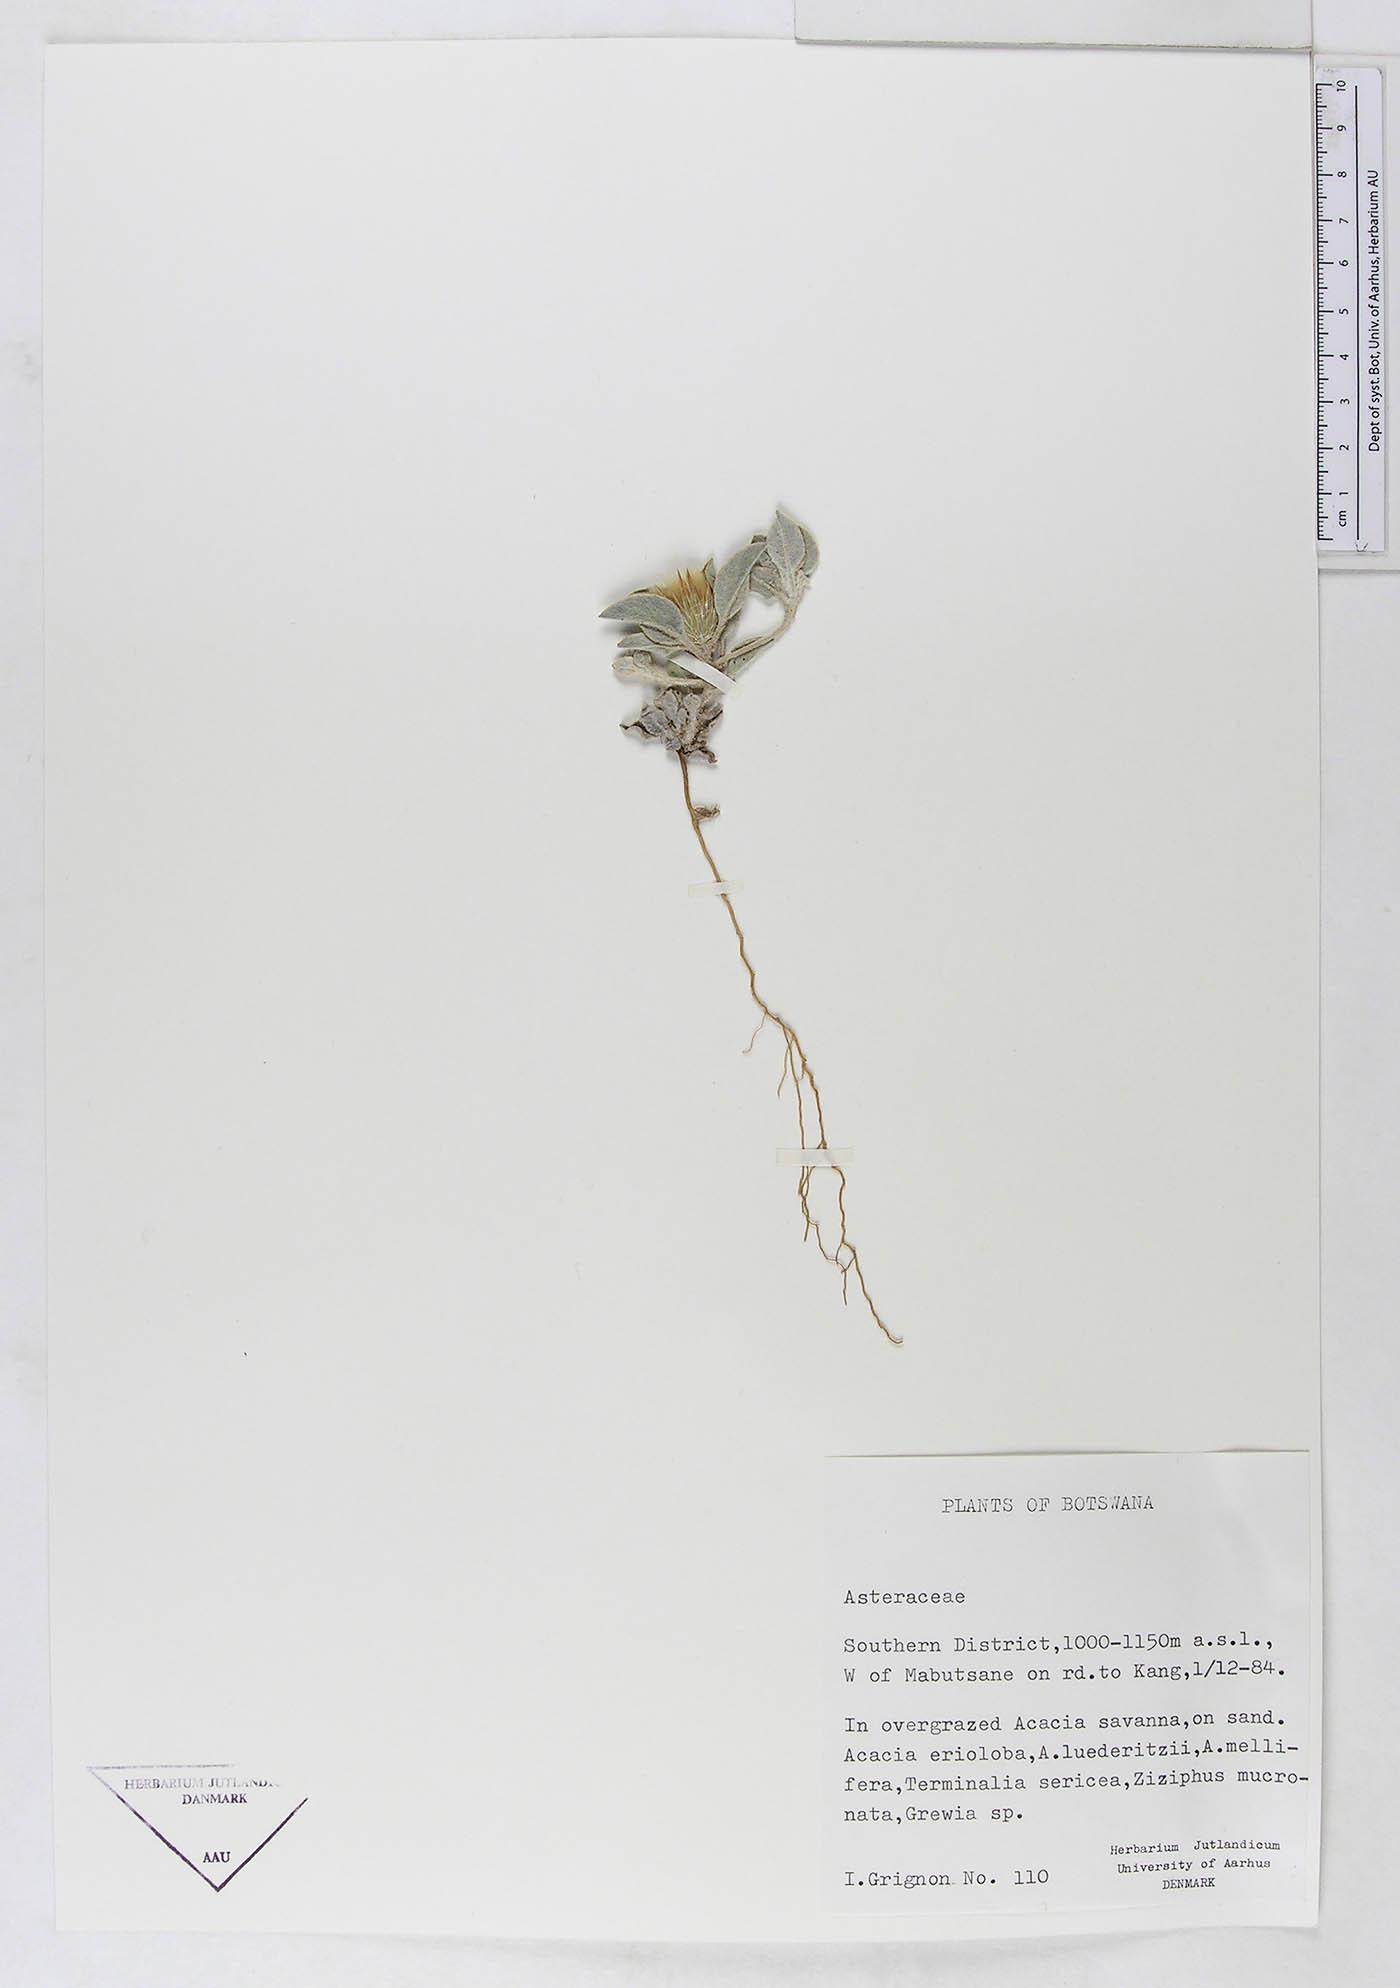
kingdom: Plantae
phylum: Tracheophyta
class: Magnoliopsida
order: Asterales
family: Asteraceae
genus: Dicoma
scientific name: Dicoma schinzii
